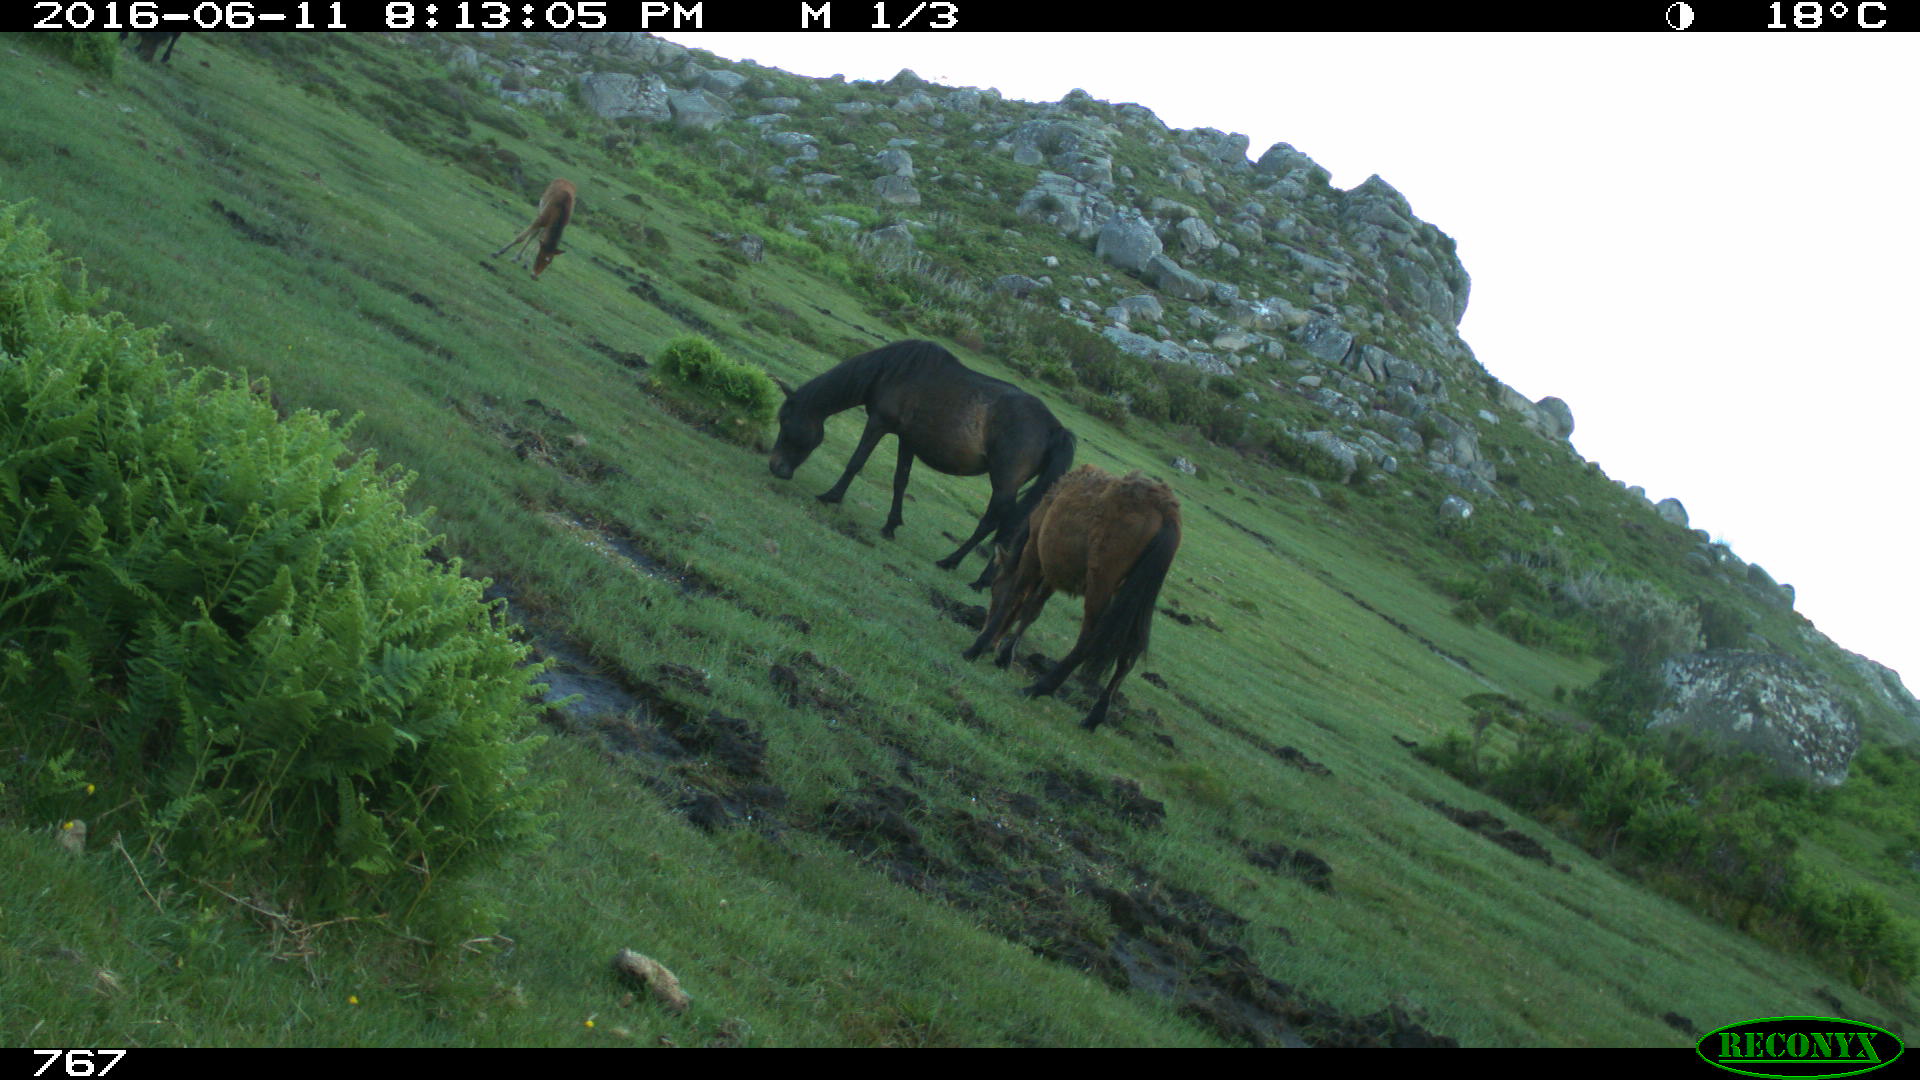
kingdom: Animalia
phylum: Chordata
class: Mammalia
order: Perissodactyla
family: Equidae
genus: Equus
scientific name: Equus caballus
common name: Horse
